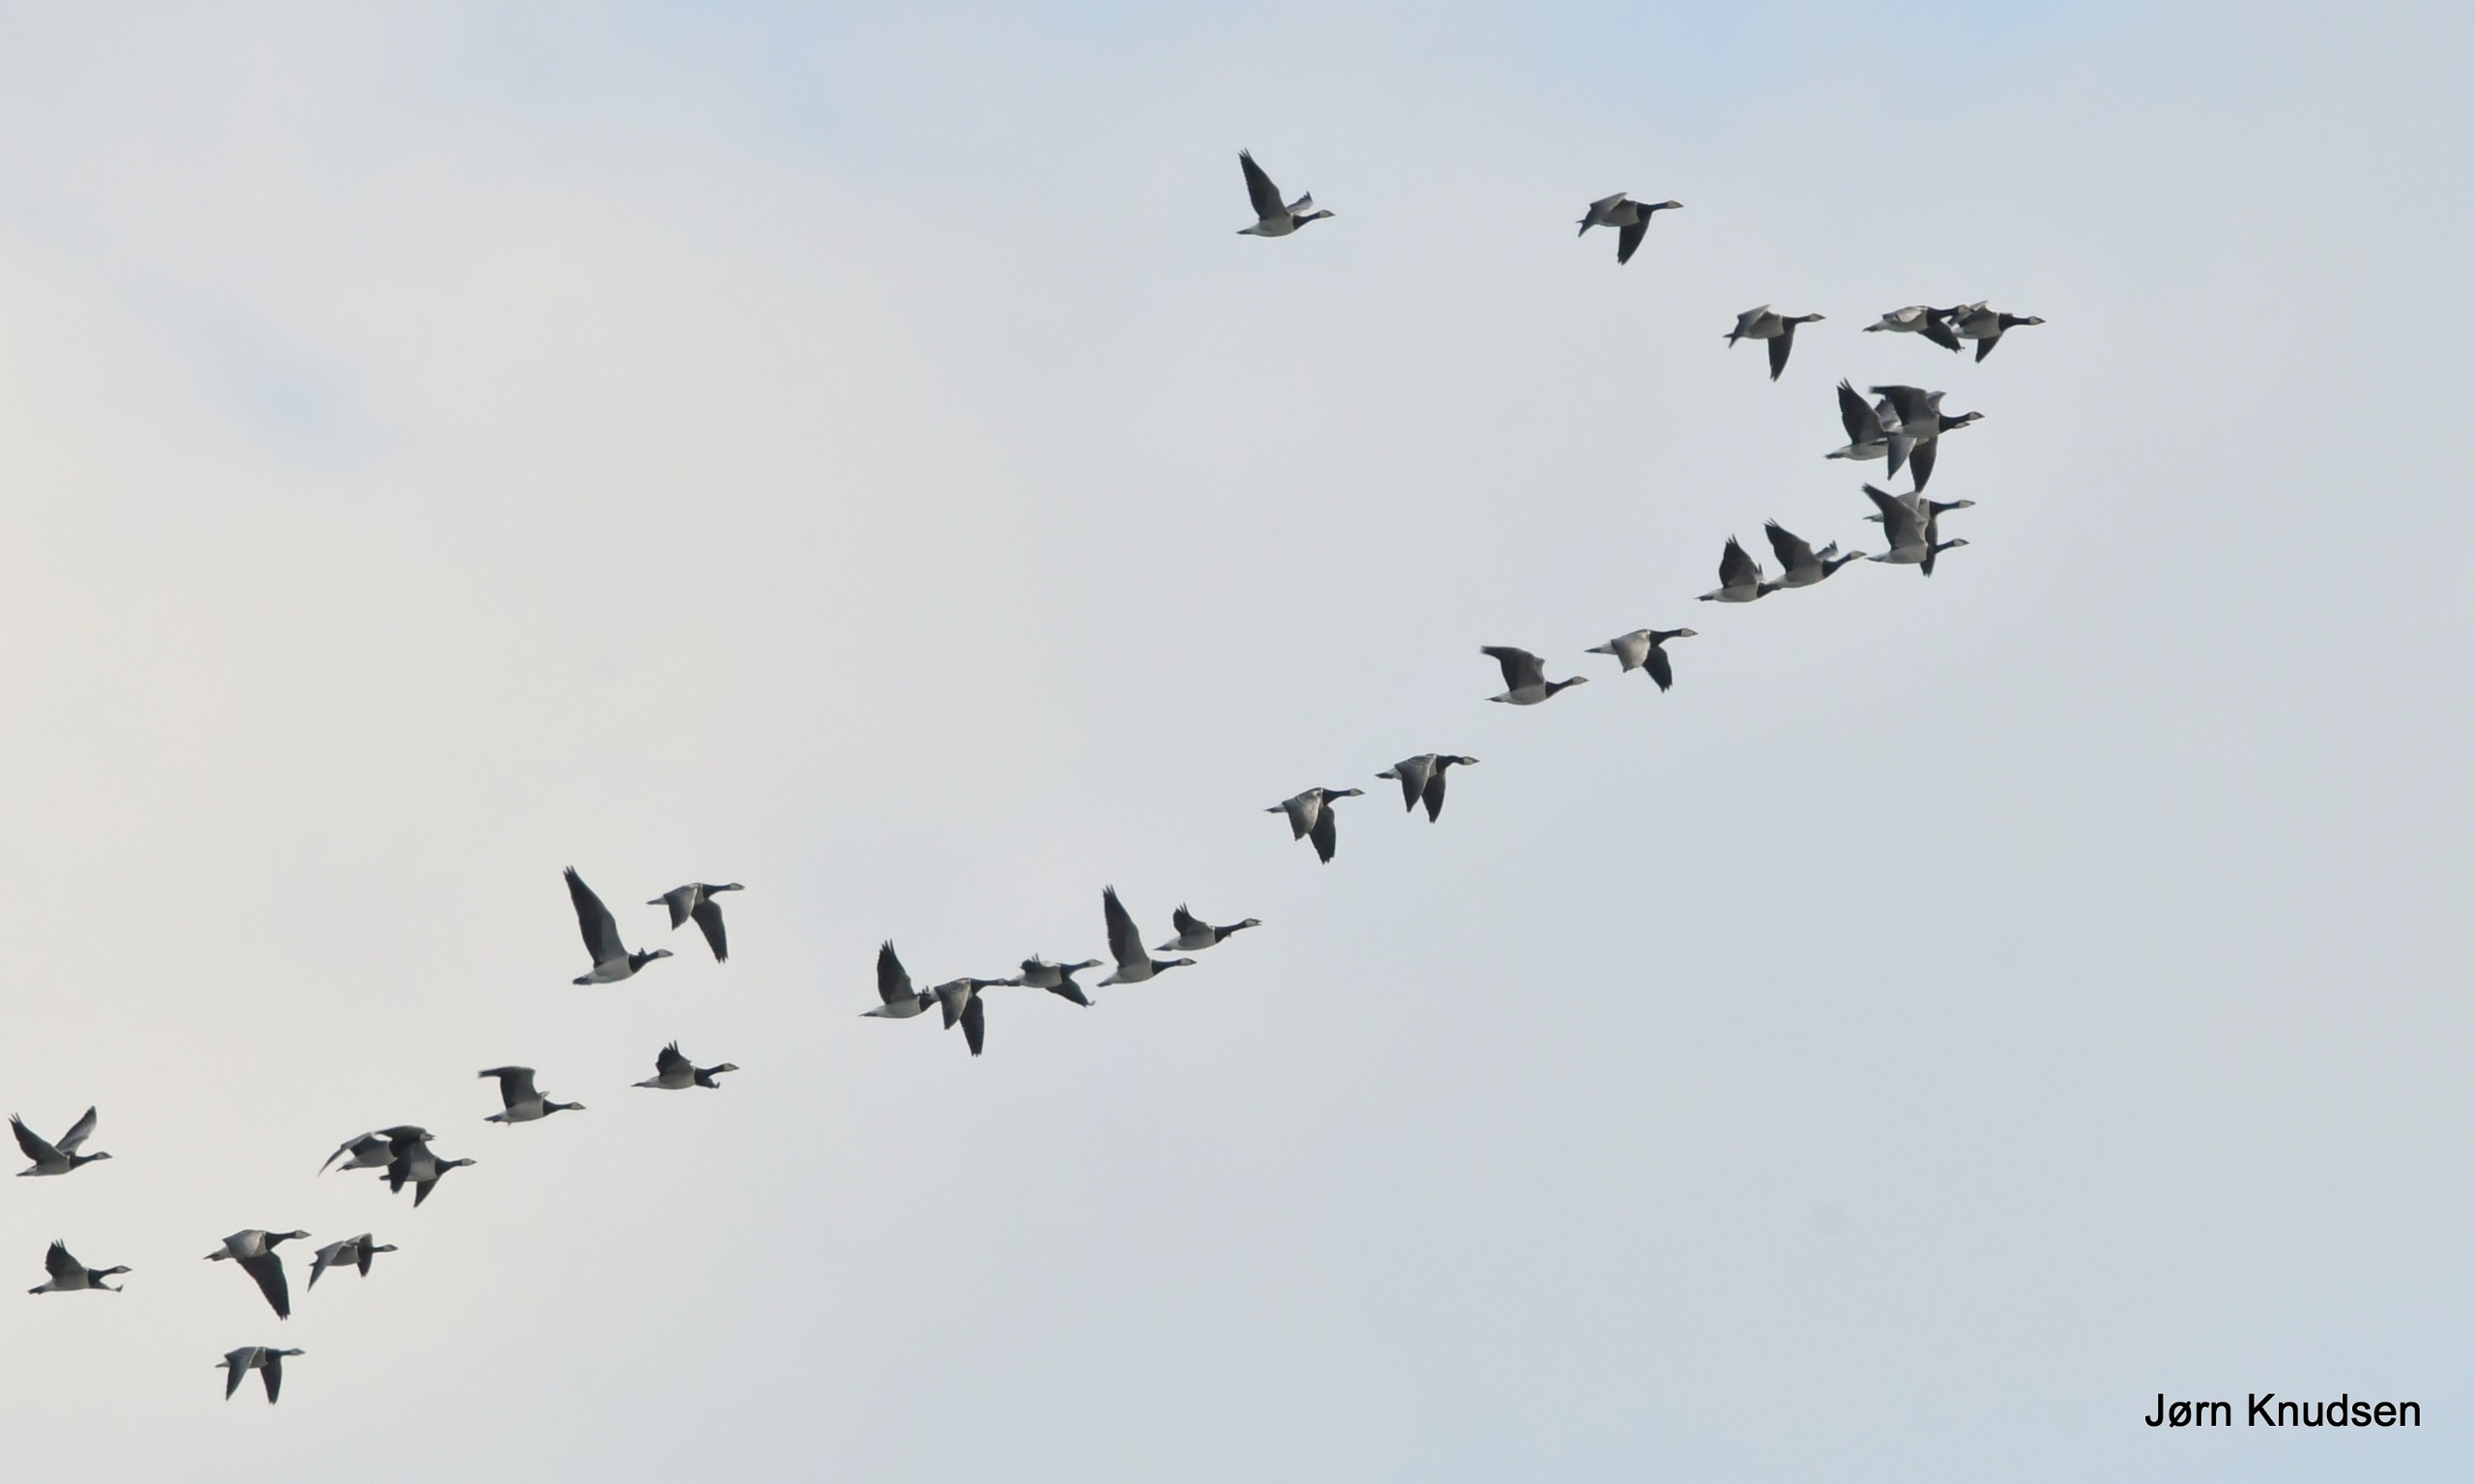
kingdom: Animalia
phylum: Chordata
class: Aves
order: Anseriformes
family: Anatidae
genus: Branta
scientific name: Branta leucopsis
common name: Bramgås
